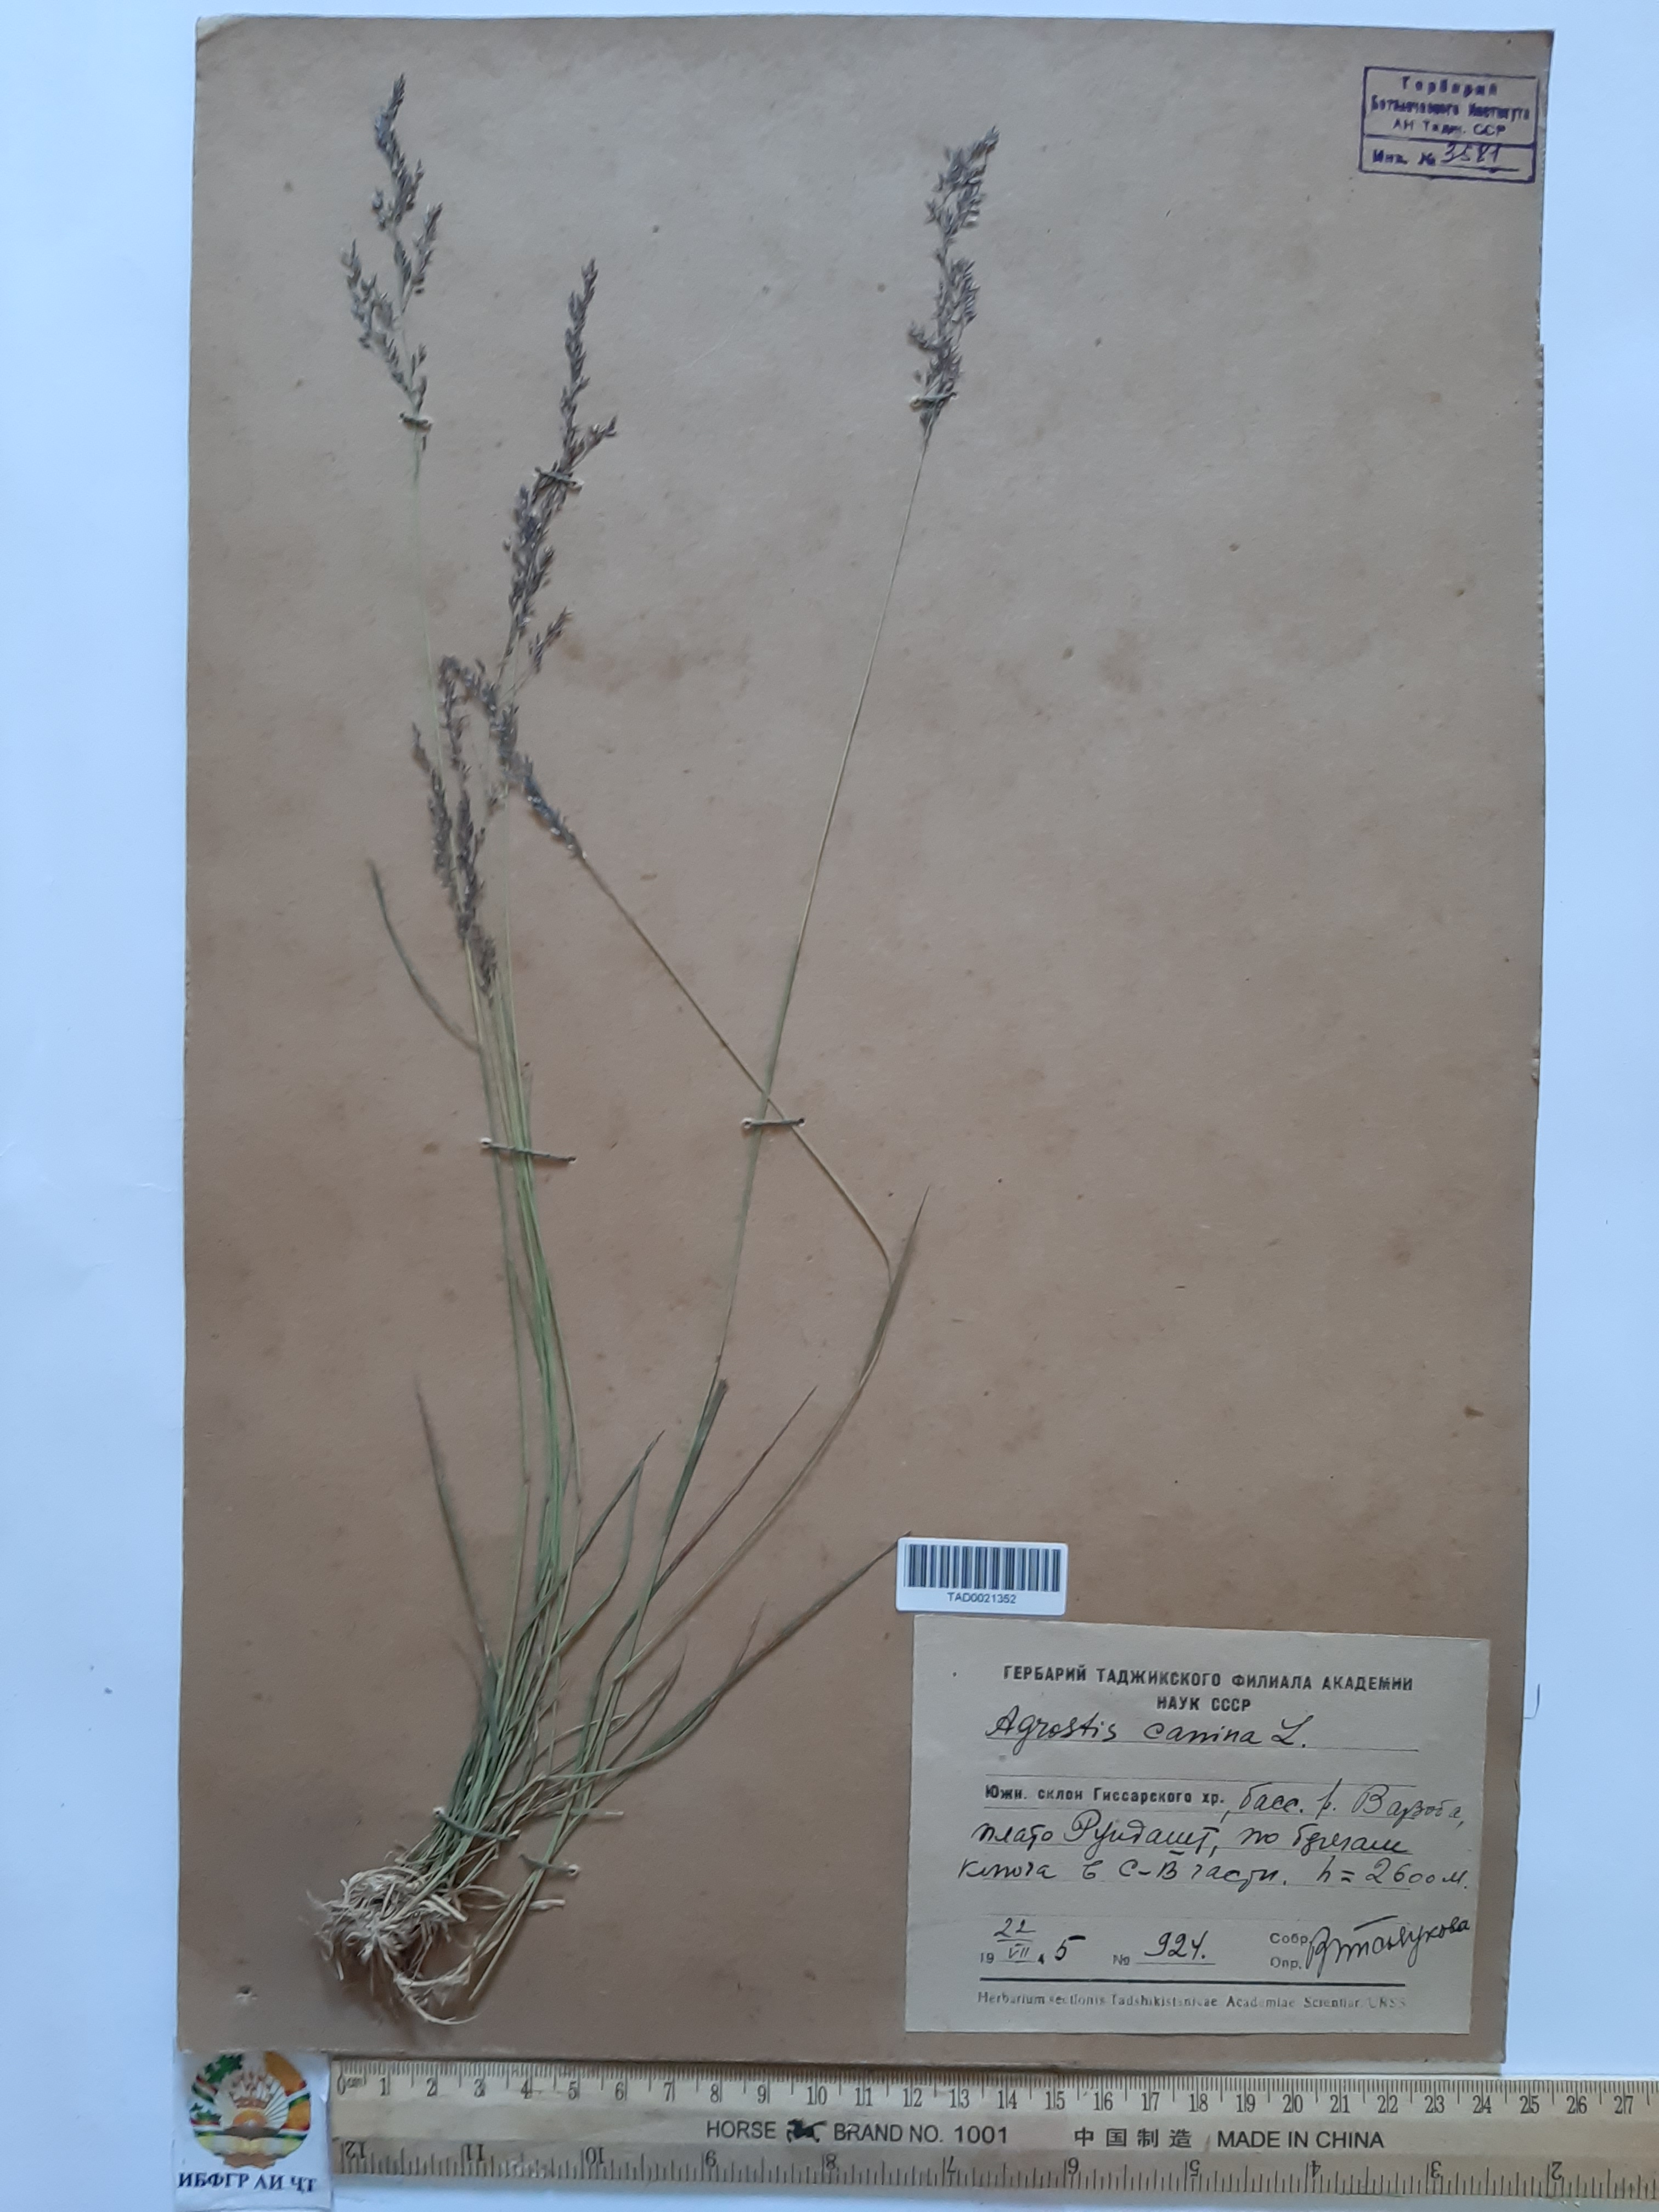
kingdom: Plantae
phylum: Tracheophyta
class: Liliopsida
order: Poales
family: Poaceae
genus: Agrostis
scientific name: Agrostis canina
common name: Velvet bent
